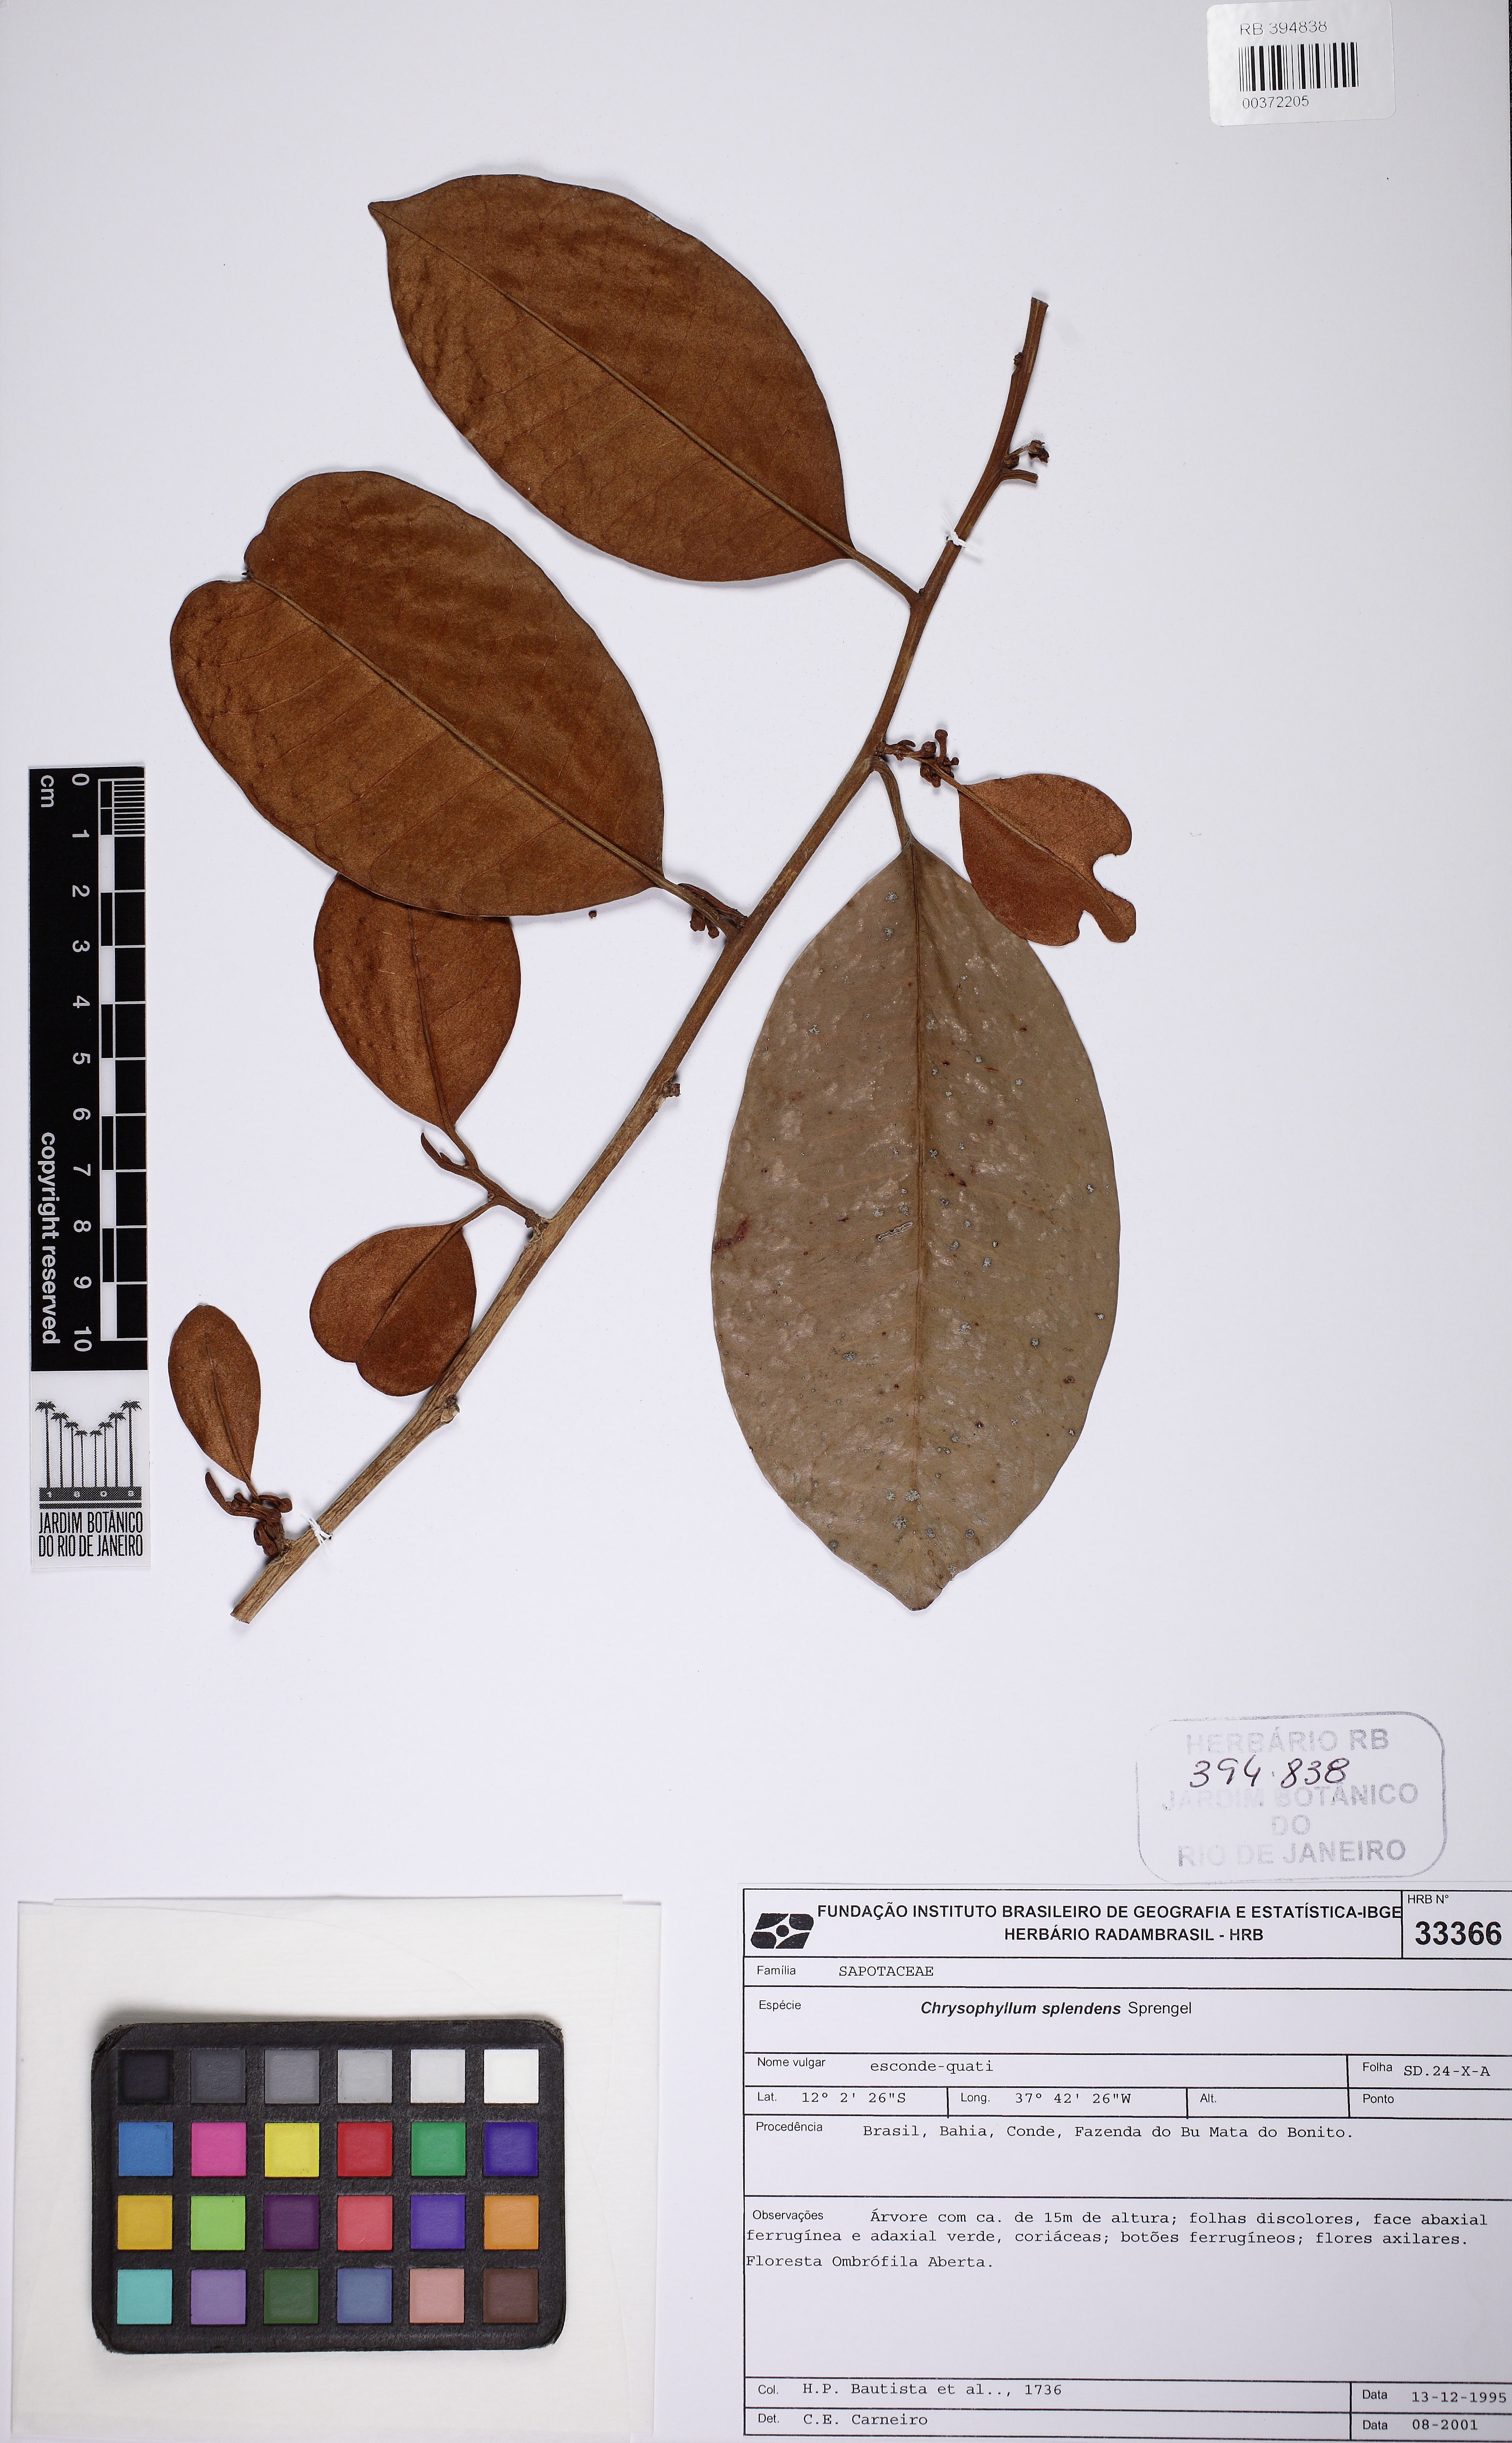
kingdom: Plantae
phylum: Tracheophyta
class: Magnoliopsida
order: Ericales
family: Sapotaceae
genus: Chrysophyllum
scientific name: Chrysophyllum splendens
